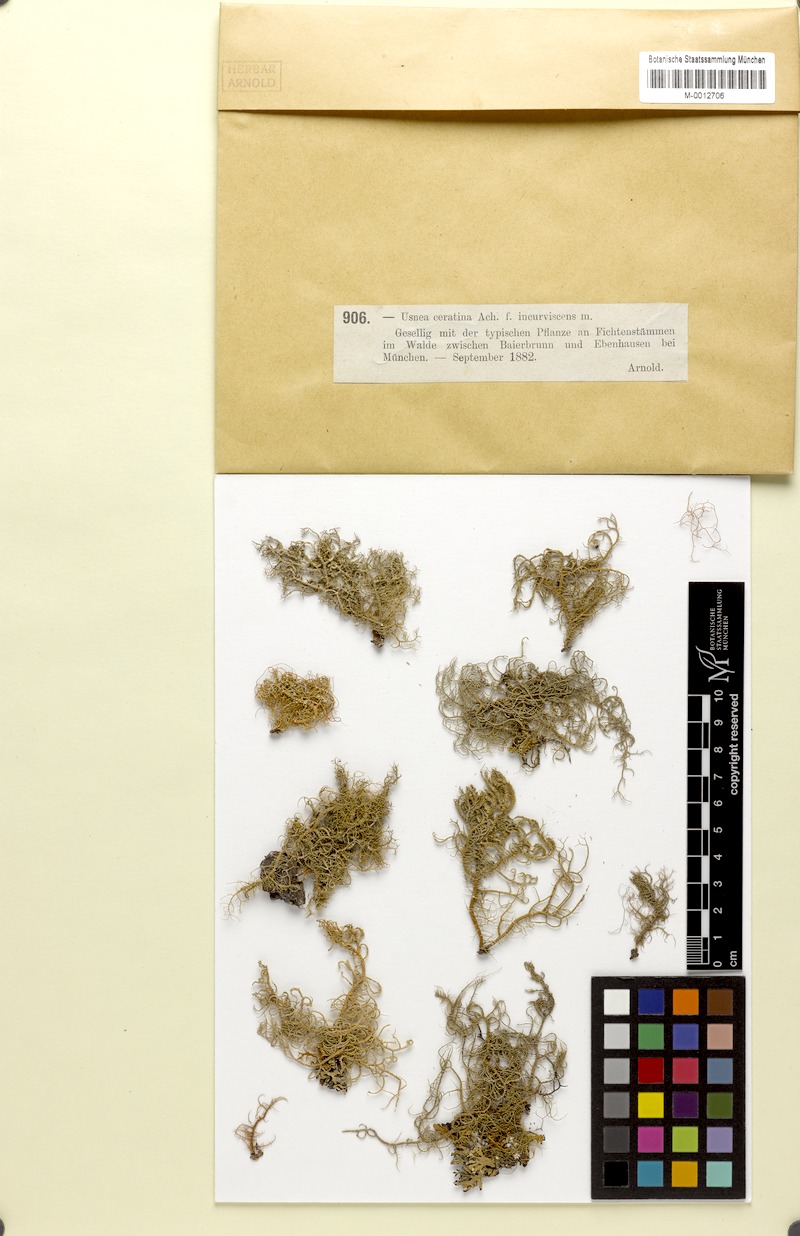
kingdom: Fungi
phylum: Ascomycota
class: Lecanoromycetes
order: Lecanorales
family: Parmeliaceae
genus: Usnea
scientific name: Usnea ceratina
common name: Warty beard lichen
